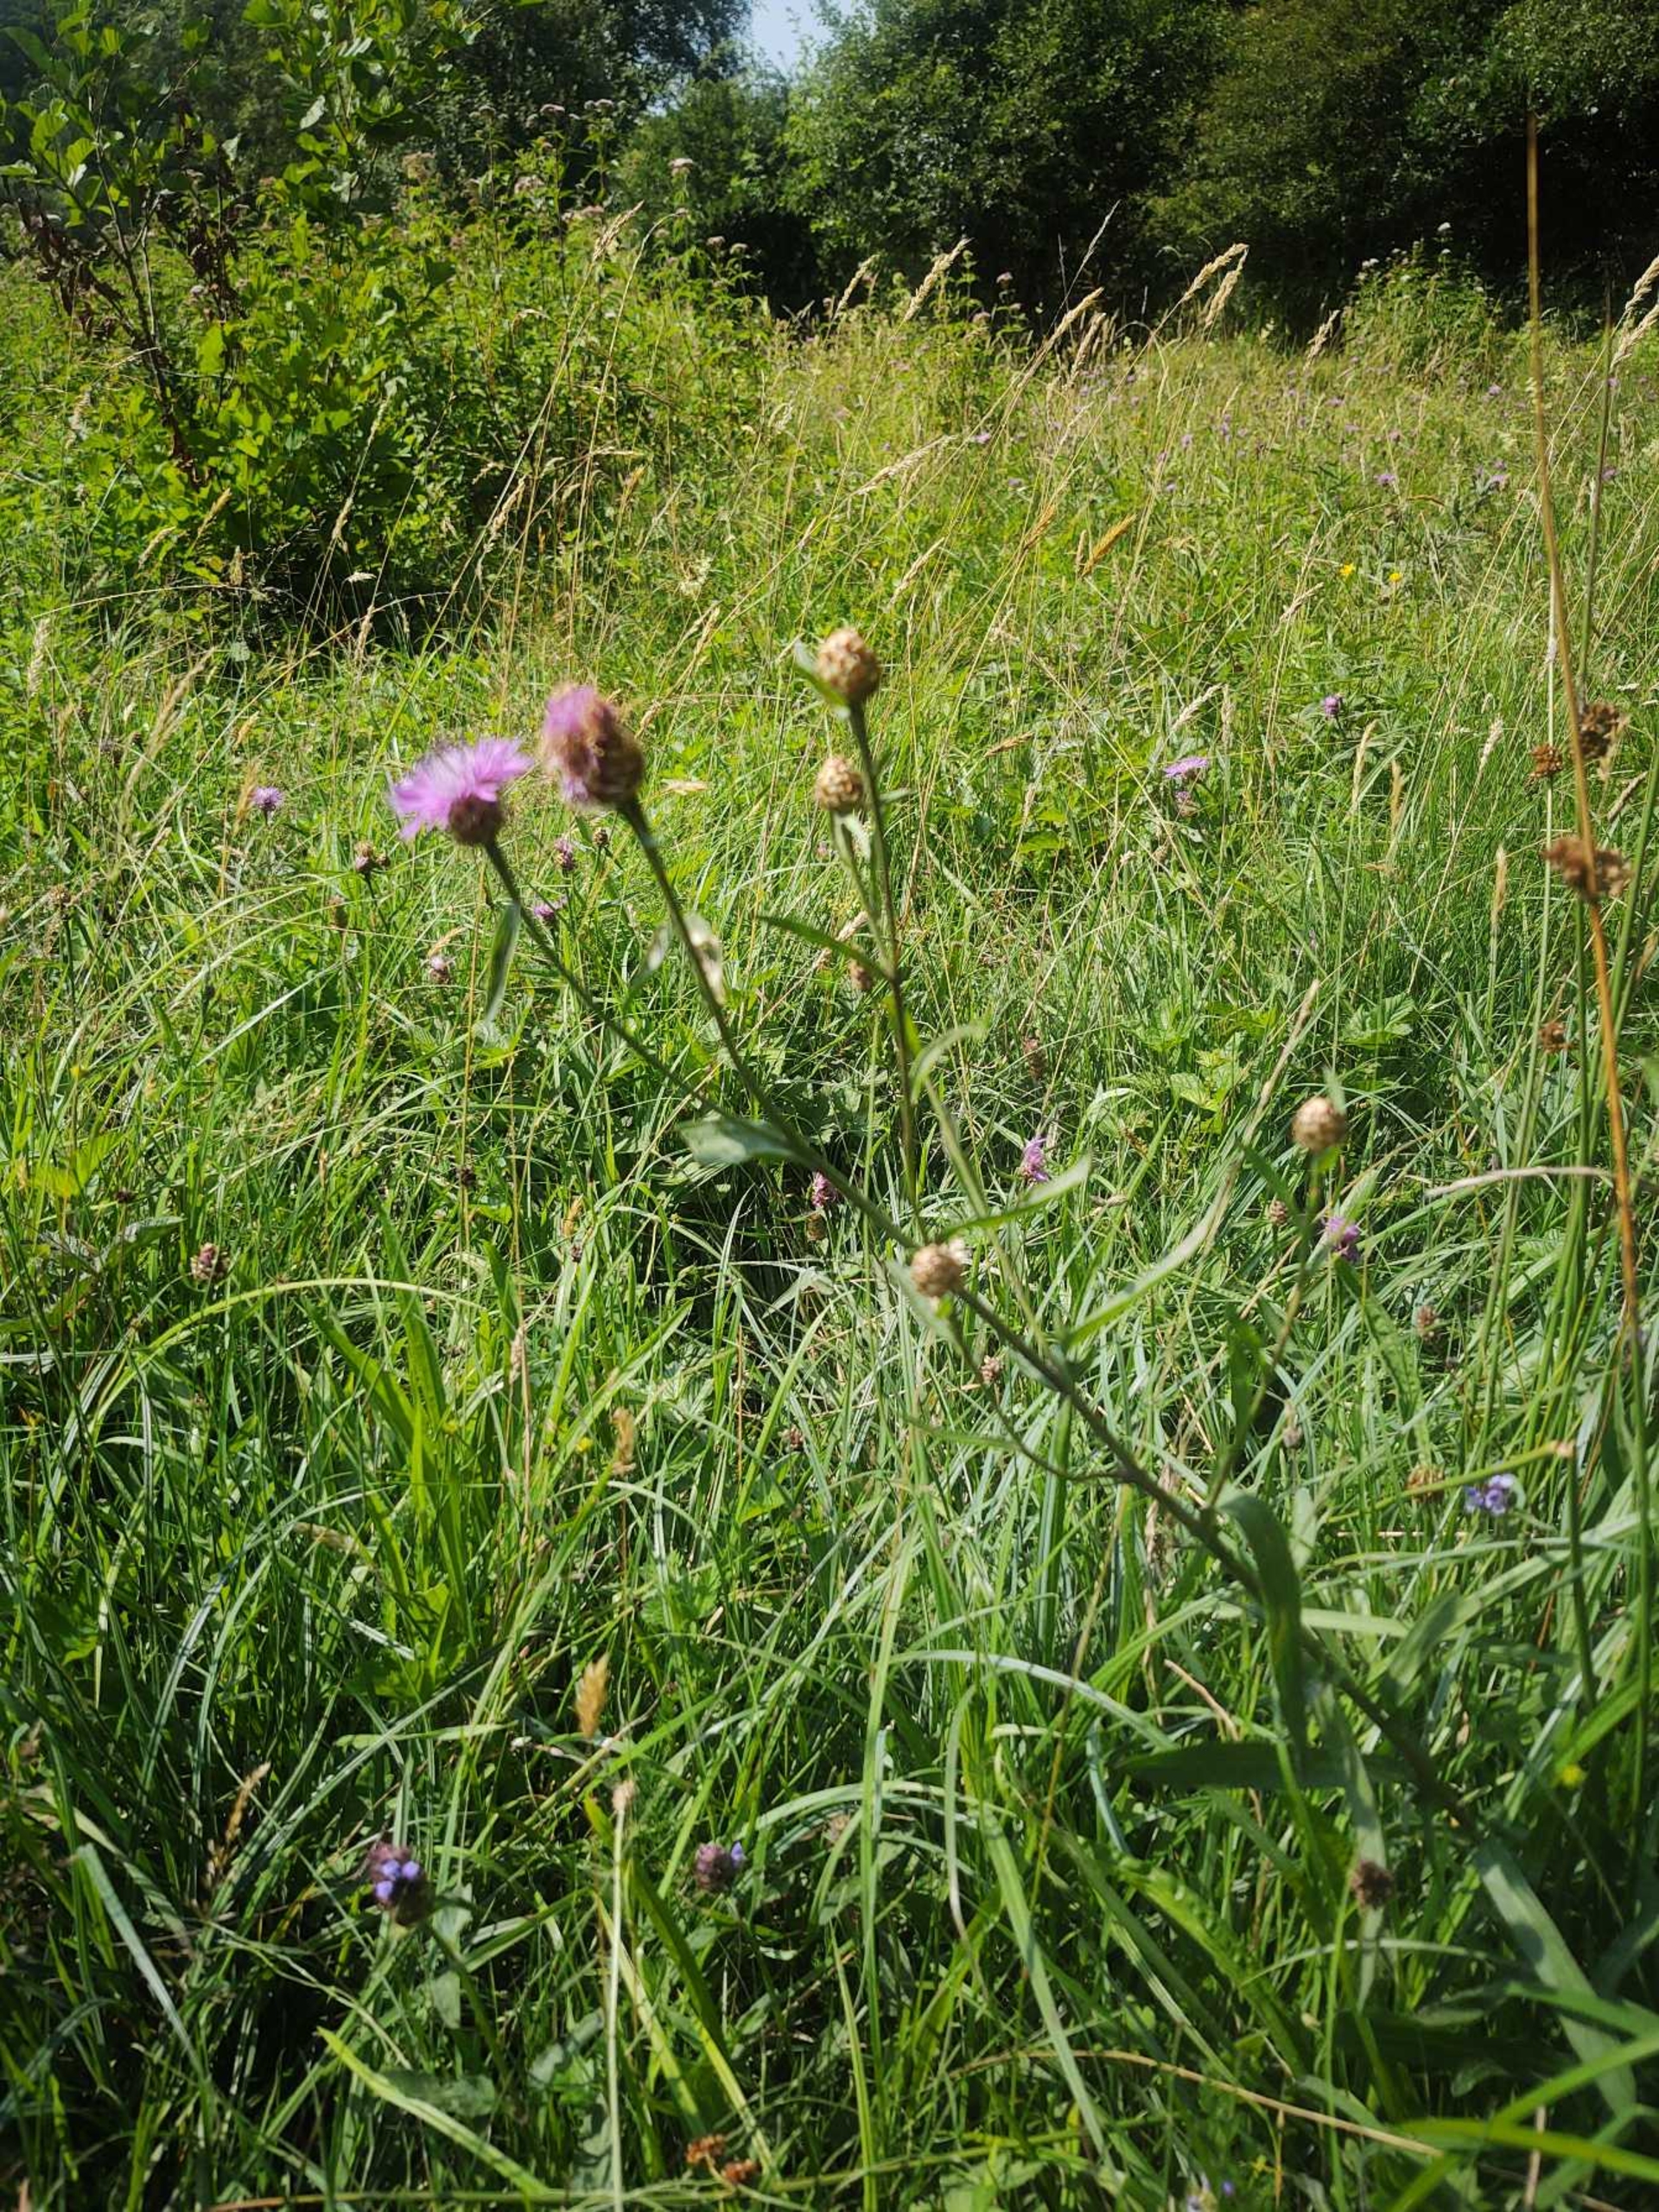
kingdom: Plantae
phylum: Tracheophyta
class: Magnoliopsida
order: Asterales
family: Asteraceae
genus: Centaurea
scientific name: Centaurea jacea
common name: Almindelig knopurt
